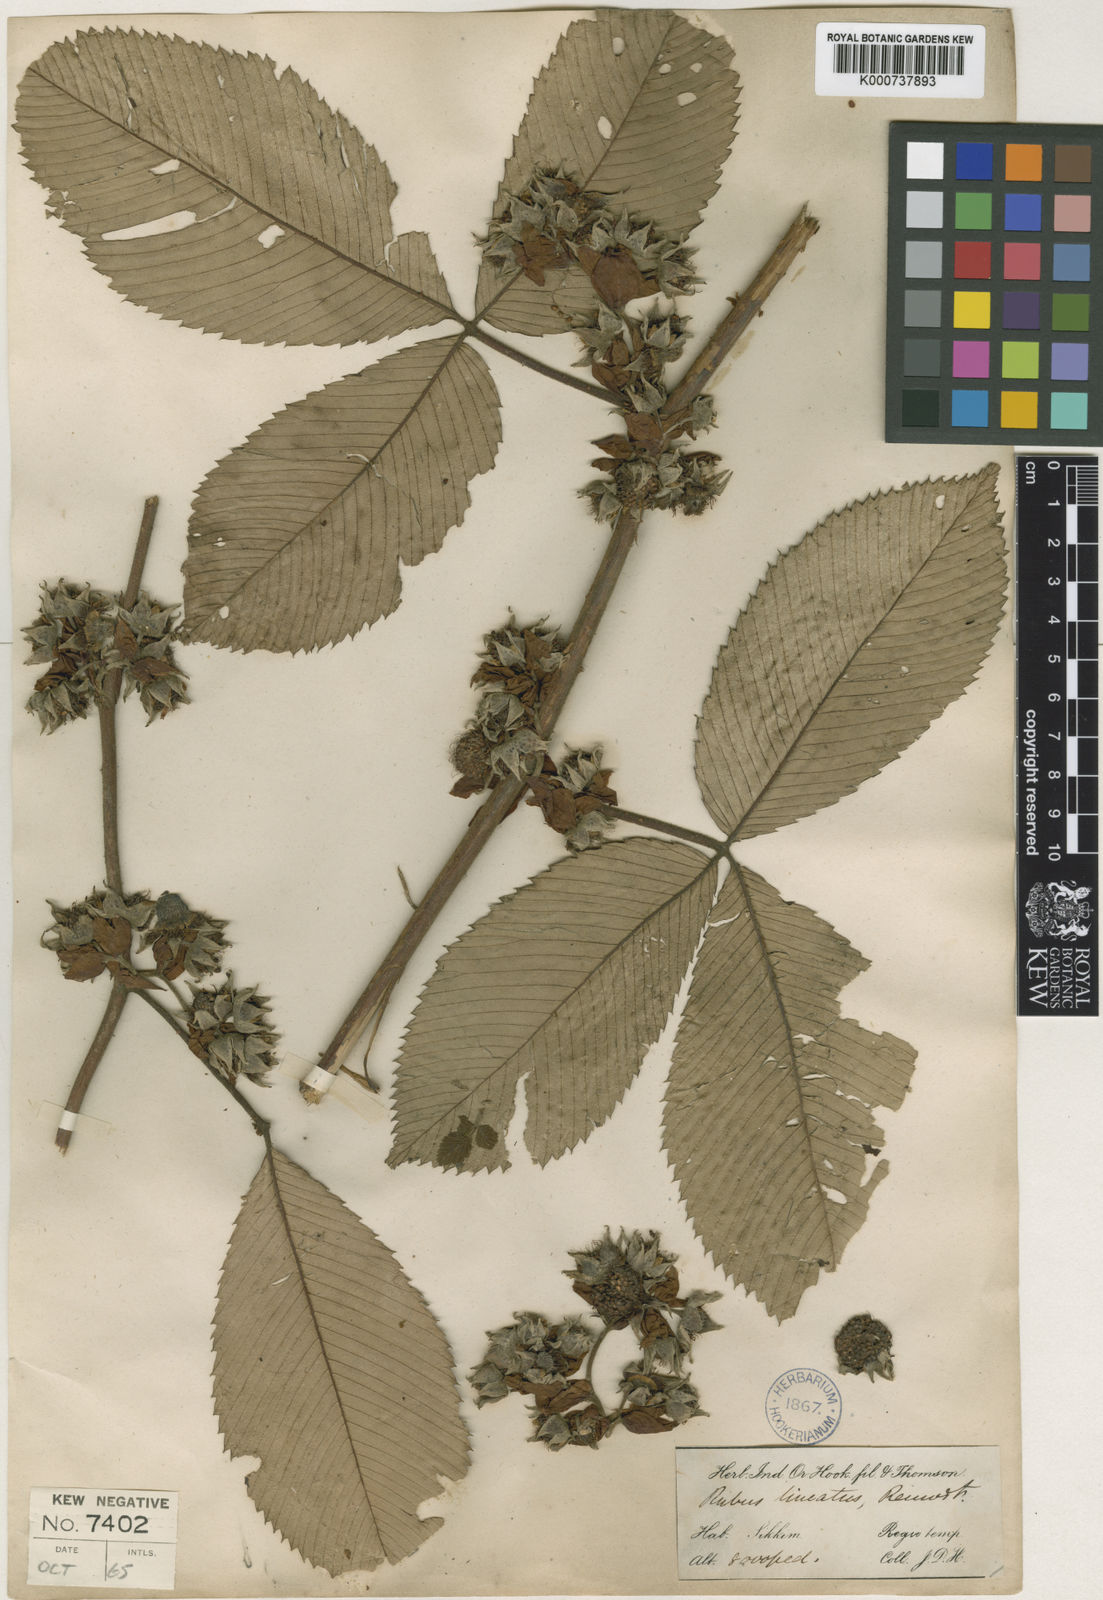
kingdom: Plantae
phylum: Tracheophyta
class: Magnoliopsida
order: Rosales
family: Rosaceae
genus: Rubus
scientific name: Rubus lineatus
